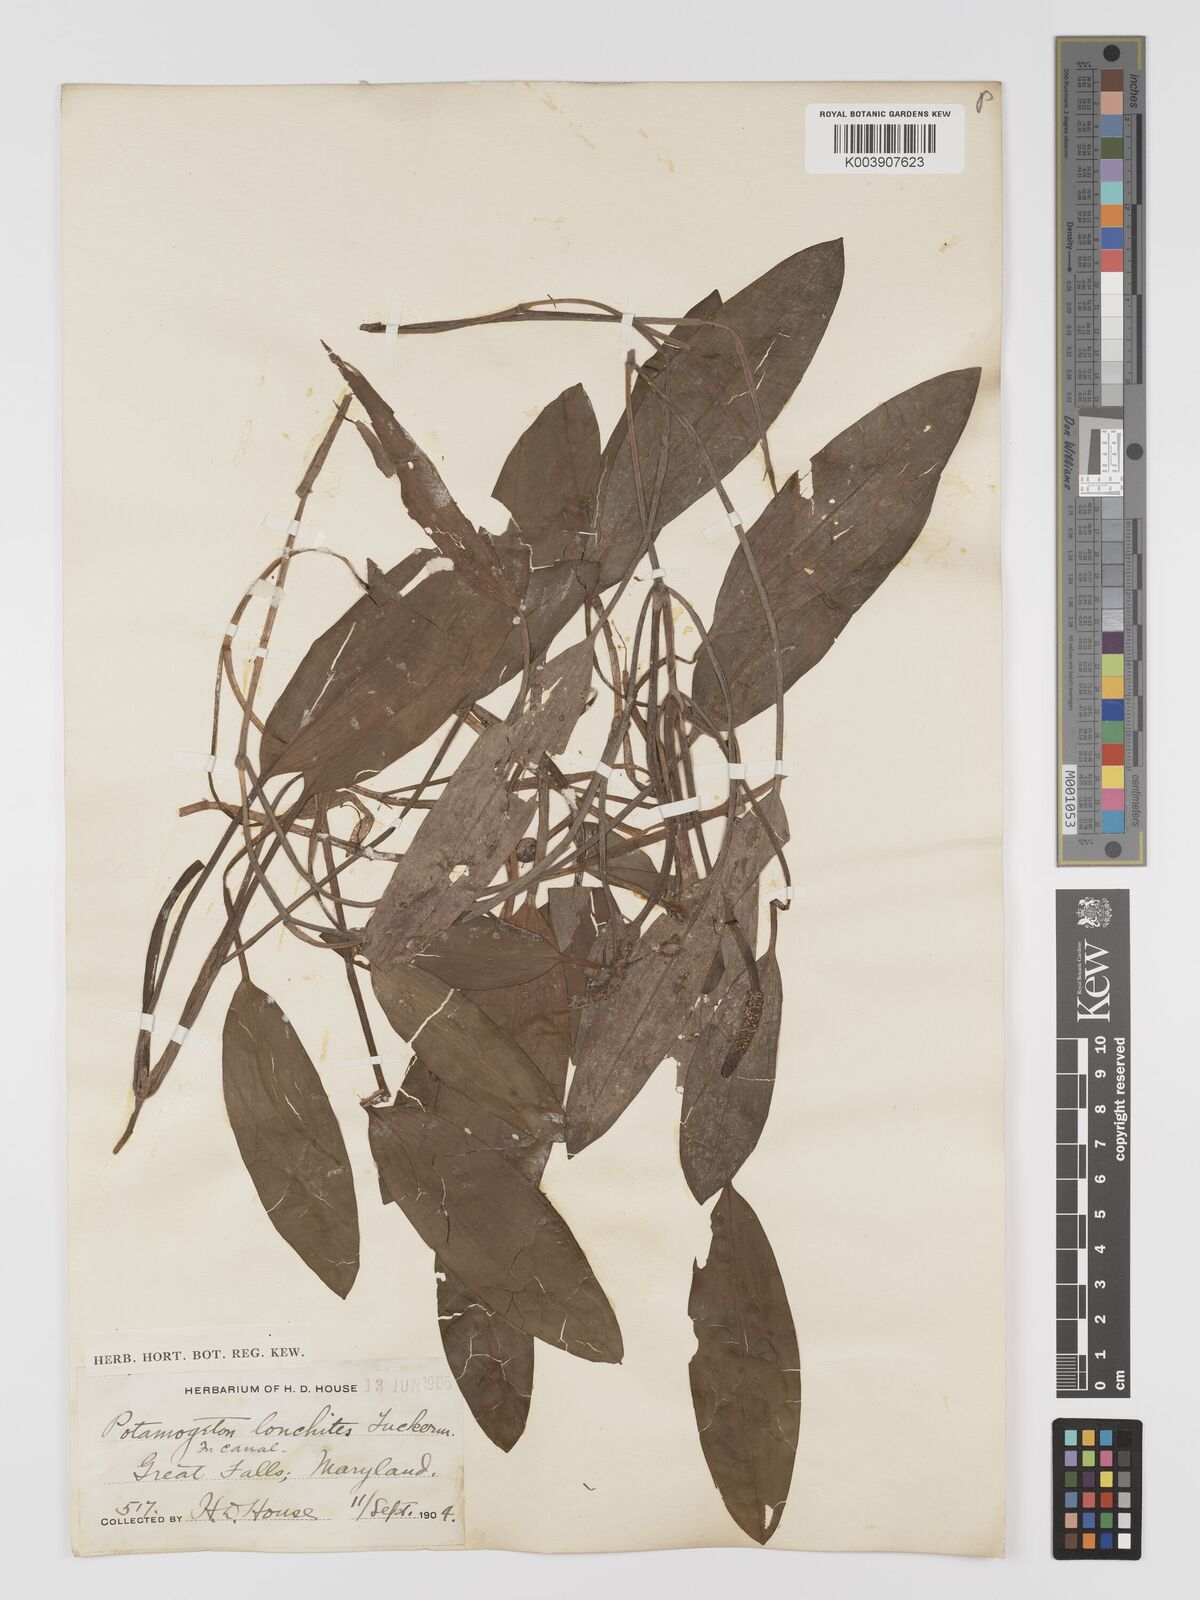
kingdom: Plantae
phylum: Tracheophyta
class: Liliopsida
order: Alismatales
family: Potamogetonaceae
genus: Potamogeton
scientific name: Potamogeton nodosus
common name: Loddon pondweed
